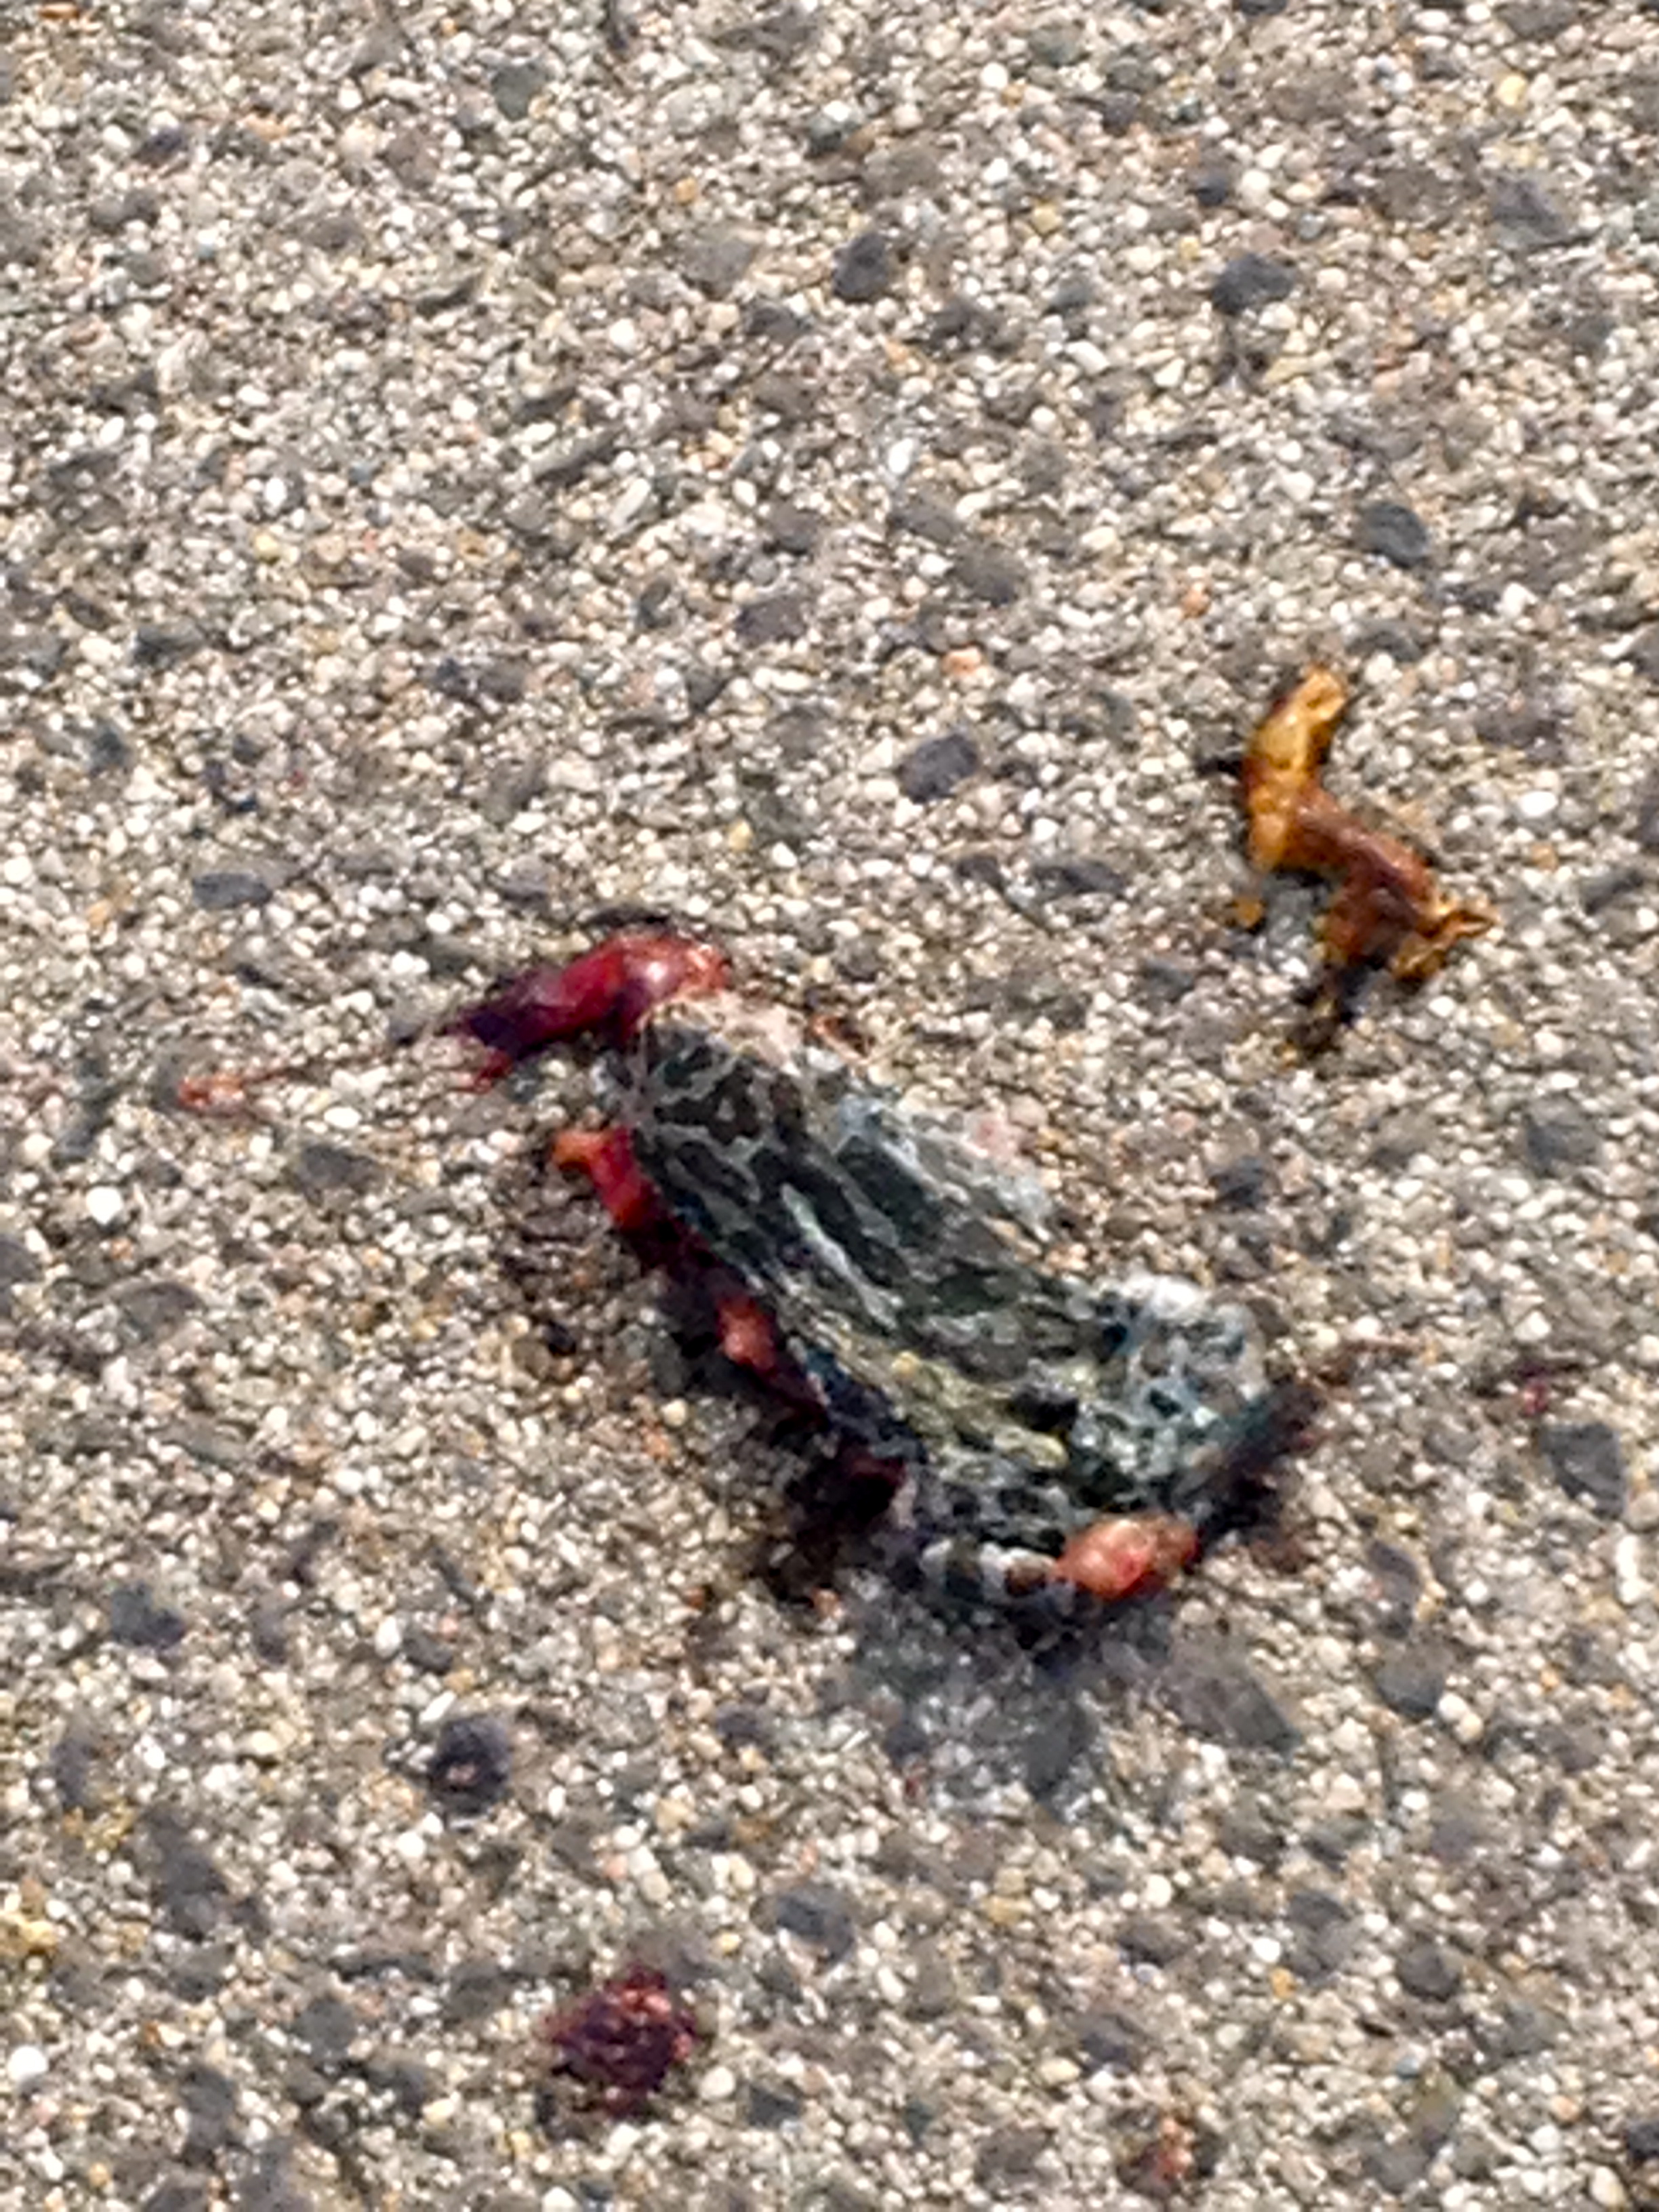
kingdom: Animalia
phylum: Chordata
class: Amphibia
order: Anura
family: Bufonidae
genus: Bufotes
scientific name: Bufotes viridis
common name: European green toad
